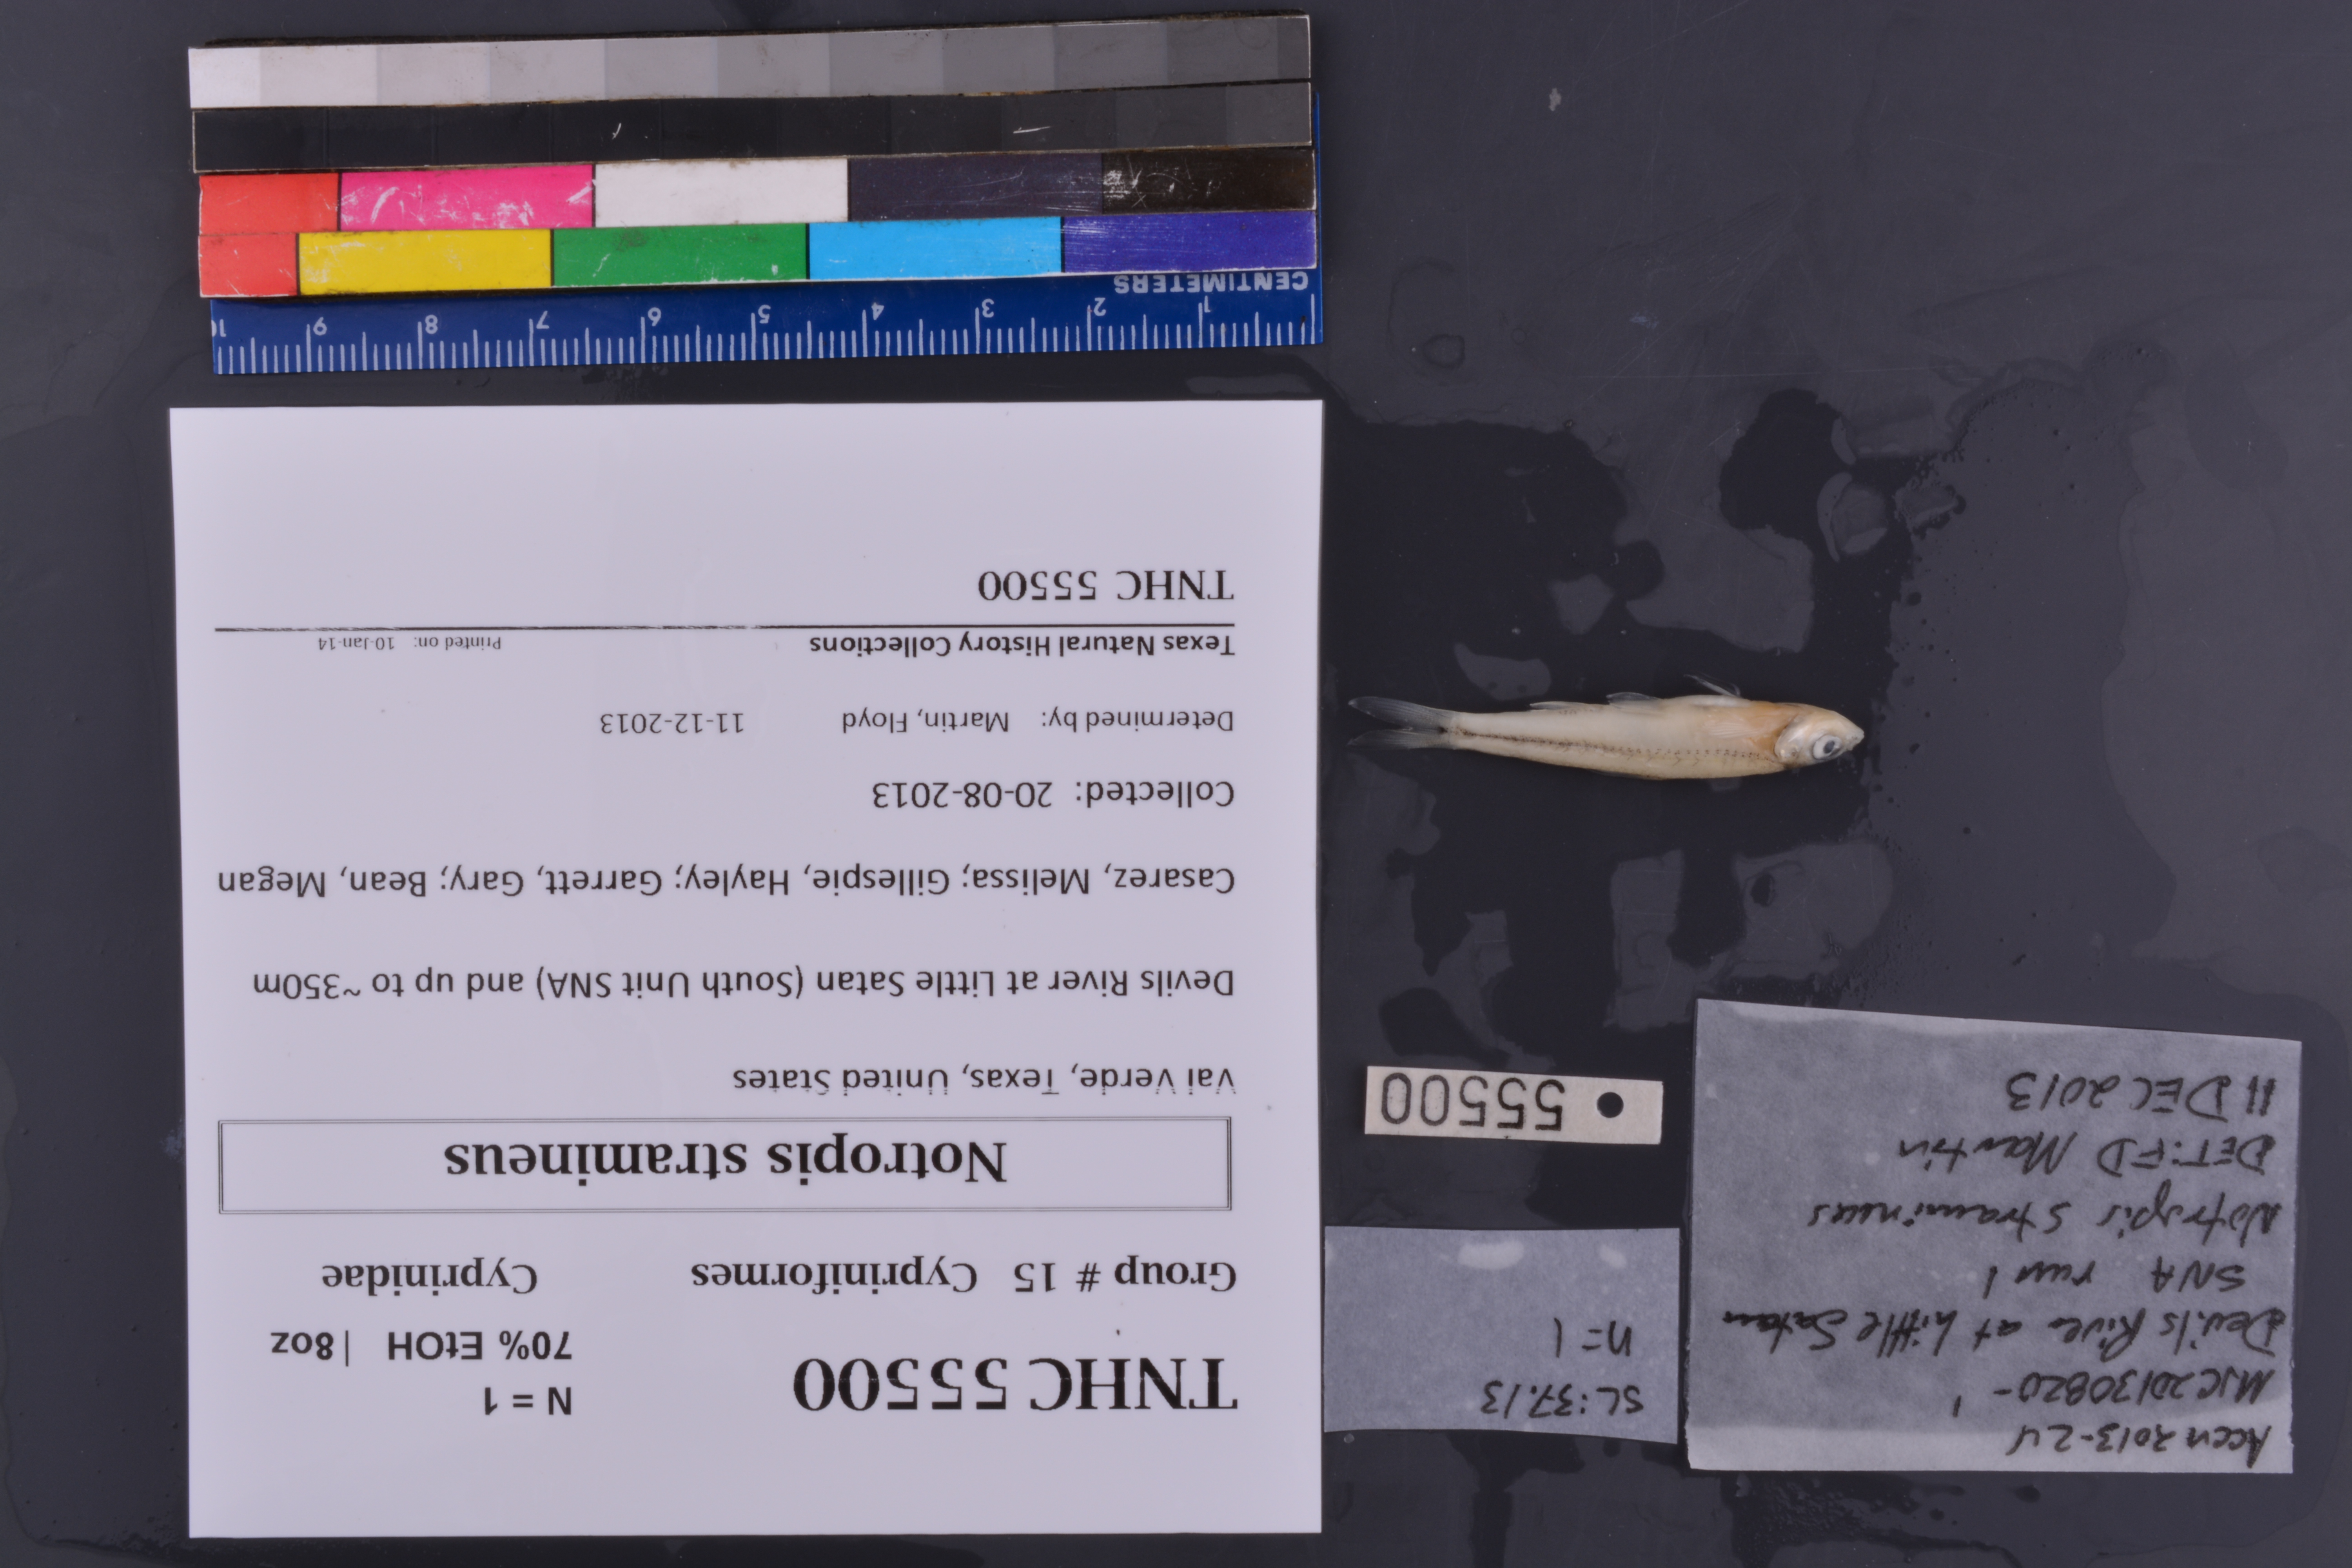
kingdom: Animalia
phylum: Chordata
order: Cypriniformes
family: Cyprinidae
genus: Notropis
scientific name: Notropis stramineus
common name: Sand shiner
